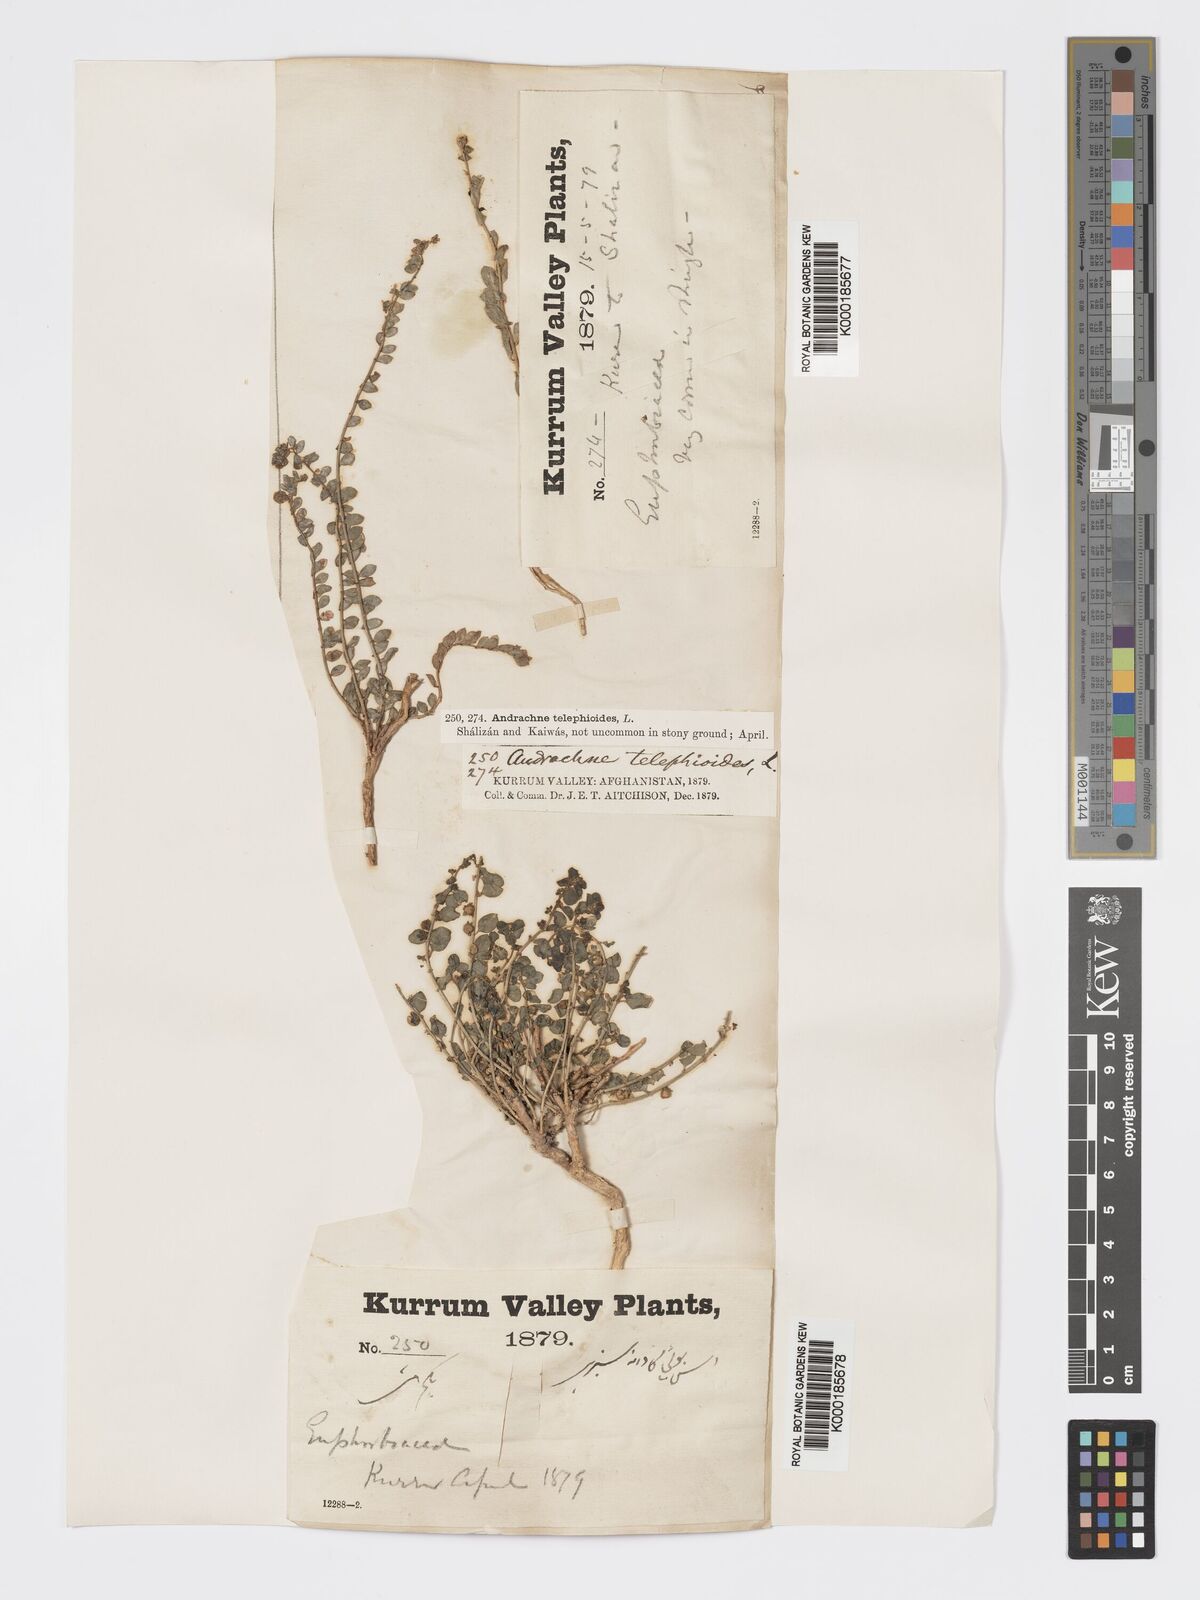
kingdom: Plantae
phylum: Tracheophyta
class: Magnoliopsida
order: Malpighiales
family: Phyllanthaceae
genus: Andrachne
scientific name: Andrachne telephioides
